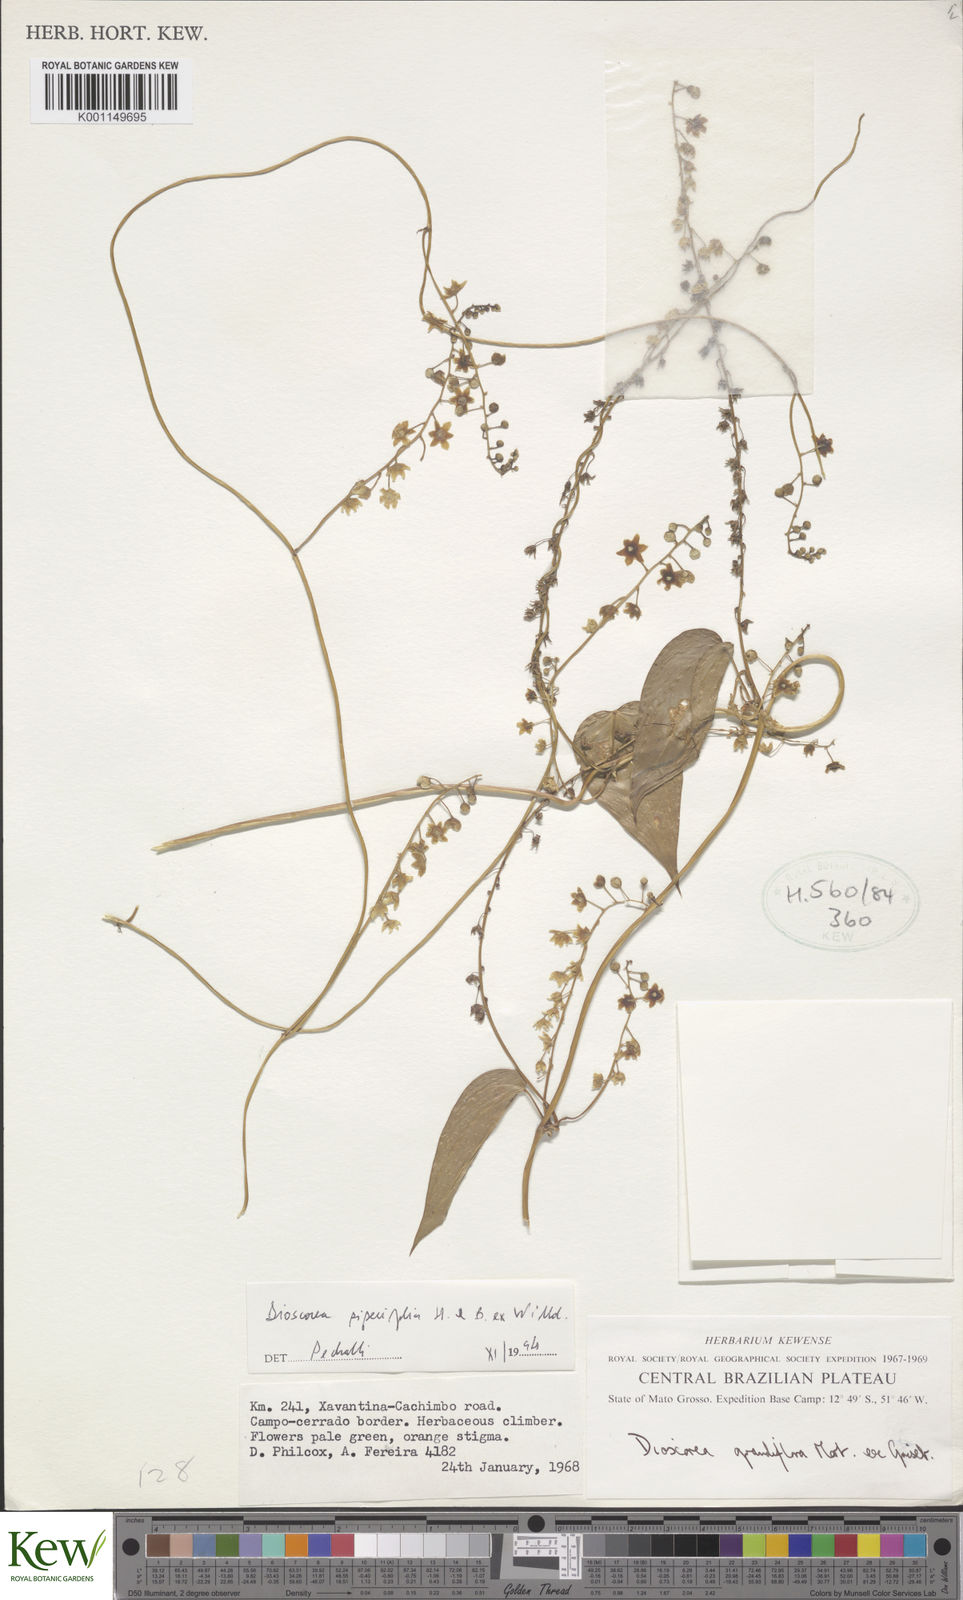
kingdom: Plantae
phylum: Tracheophyta
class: Liliopsida
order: Dioscoreales
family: Dioscoreaceae
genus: Dioscorea
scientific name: Dioscorea grandiflora
